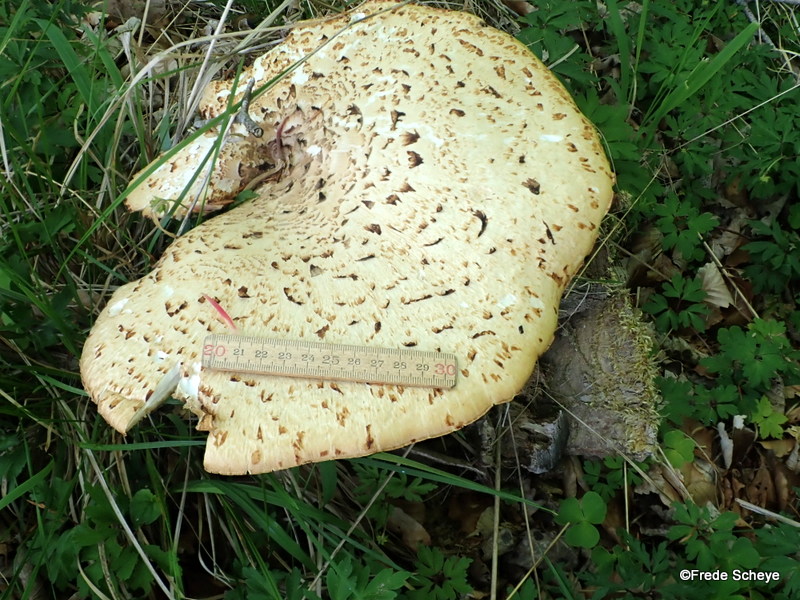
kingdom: Fungi
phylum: Basidiomycota
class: Agaricomycetes
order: Polyporales
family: Polyporaceae
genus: Cerioporus
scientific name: Cerioporus squamosus
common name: skællet stilkporesvamp
